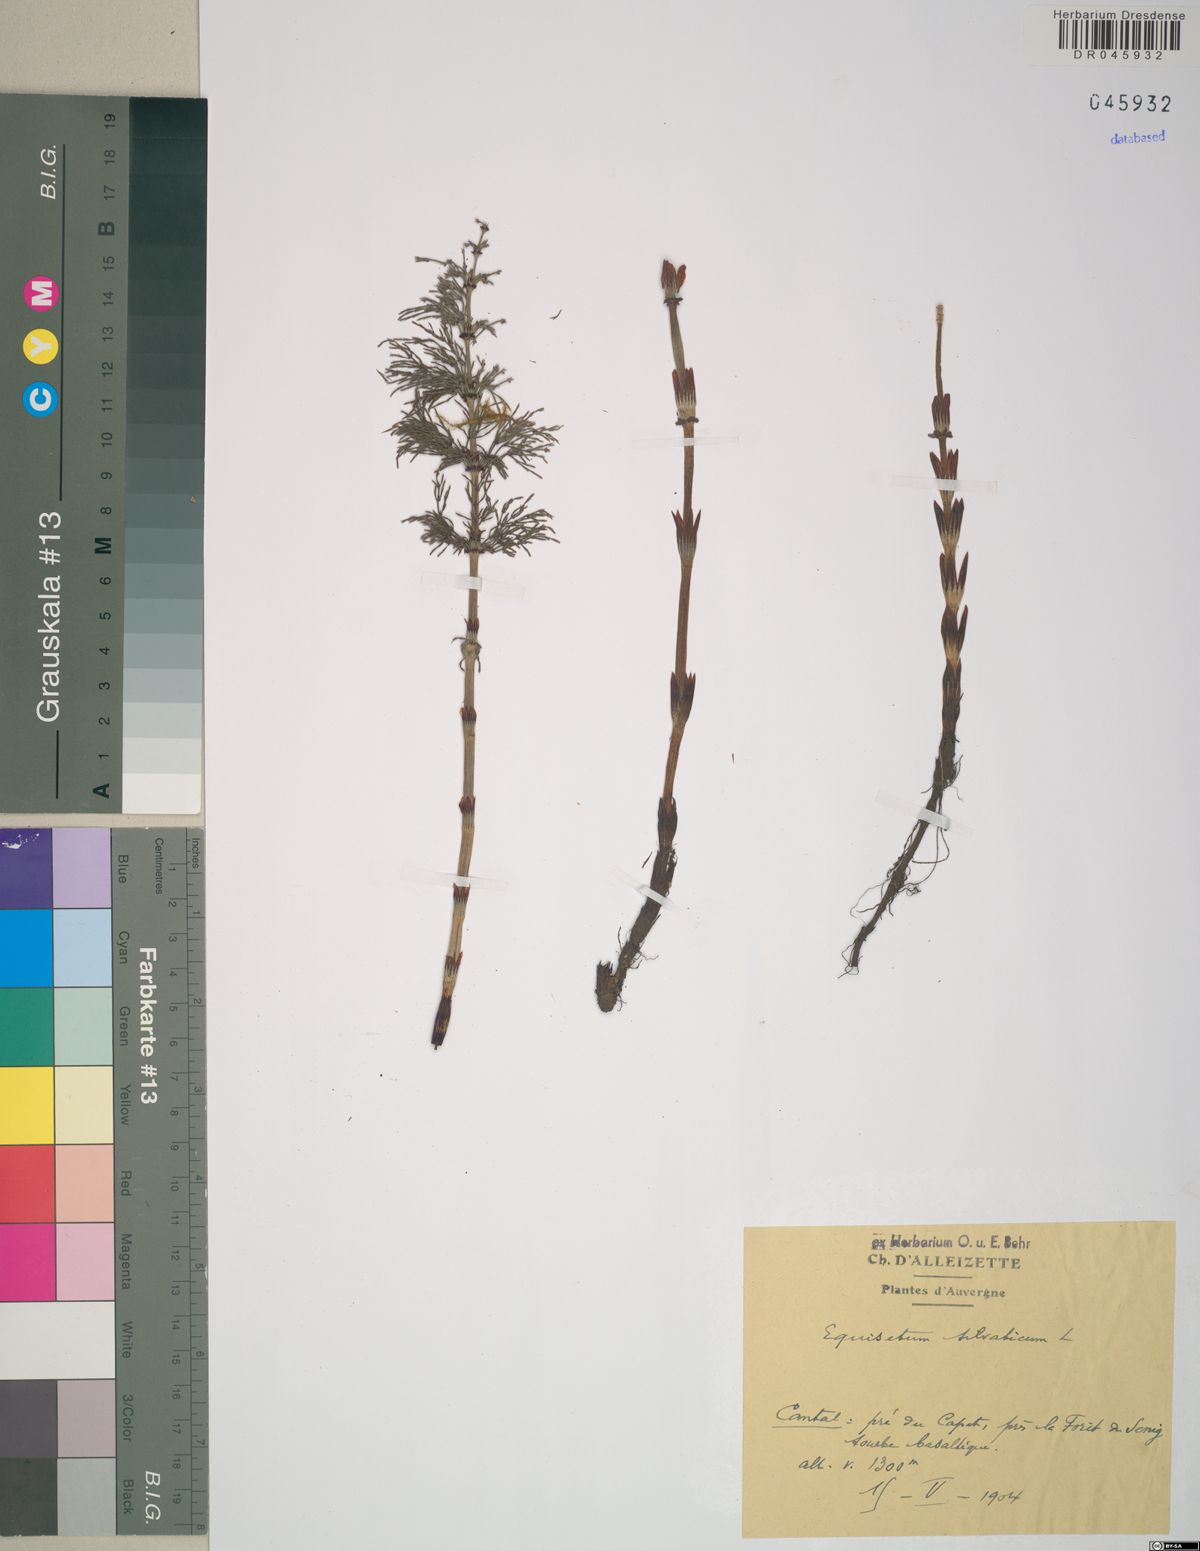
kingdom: Plantae
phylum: Tracheophyta
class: Polypodiopsida
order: Equisetales
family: Equisetaceae
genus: Equisetum
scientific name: Equisetum sylvaticum
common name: Wood horsetail
